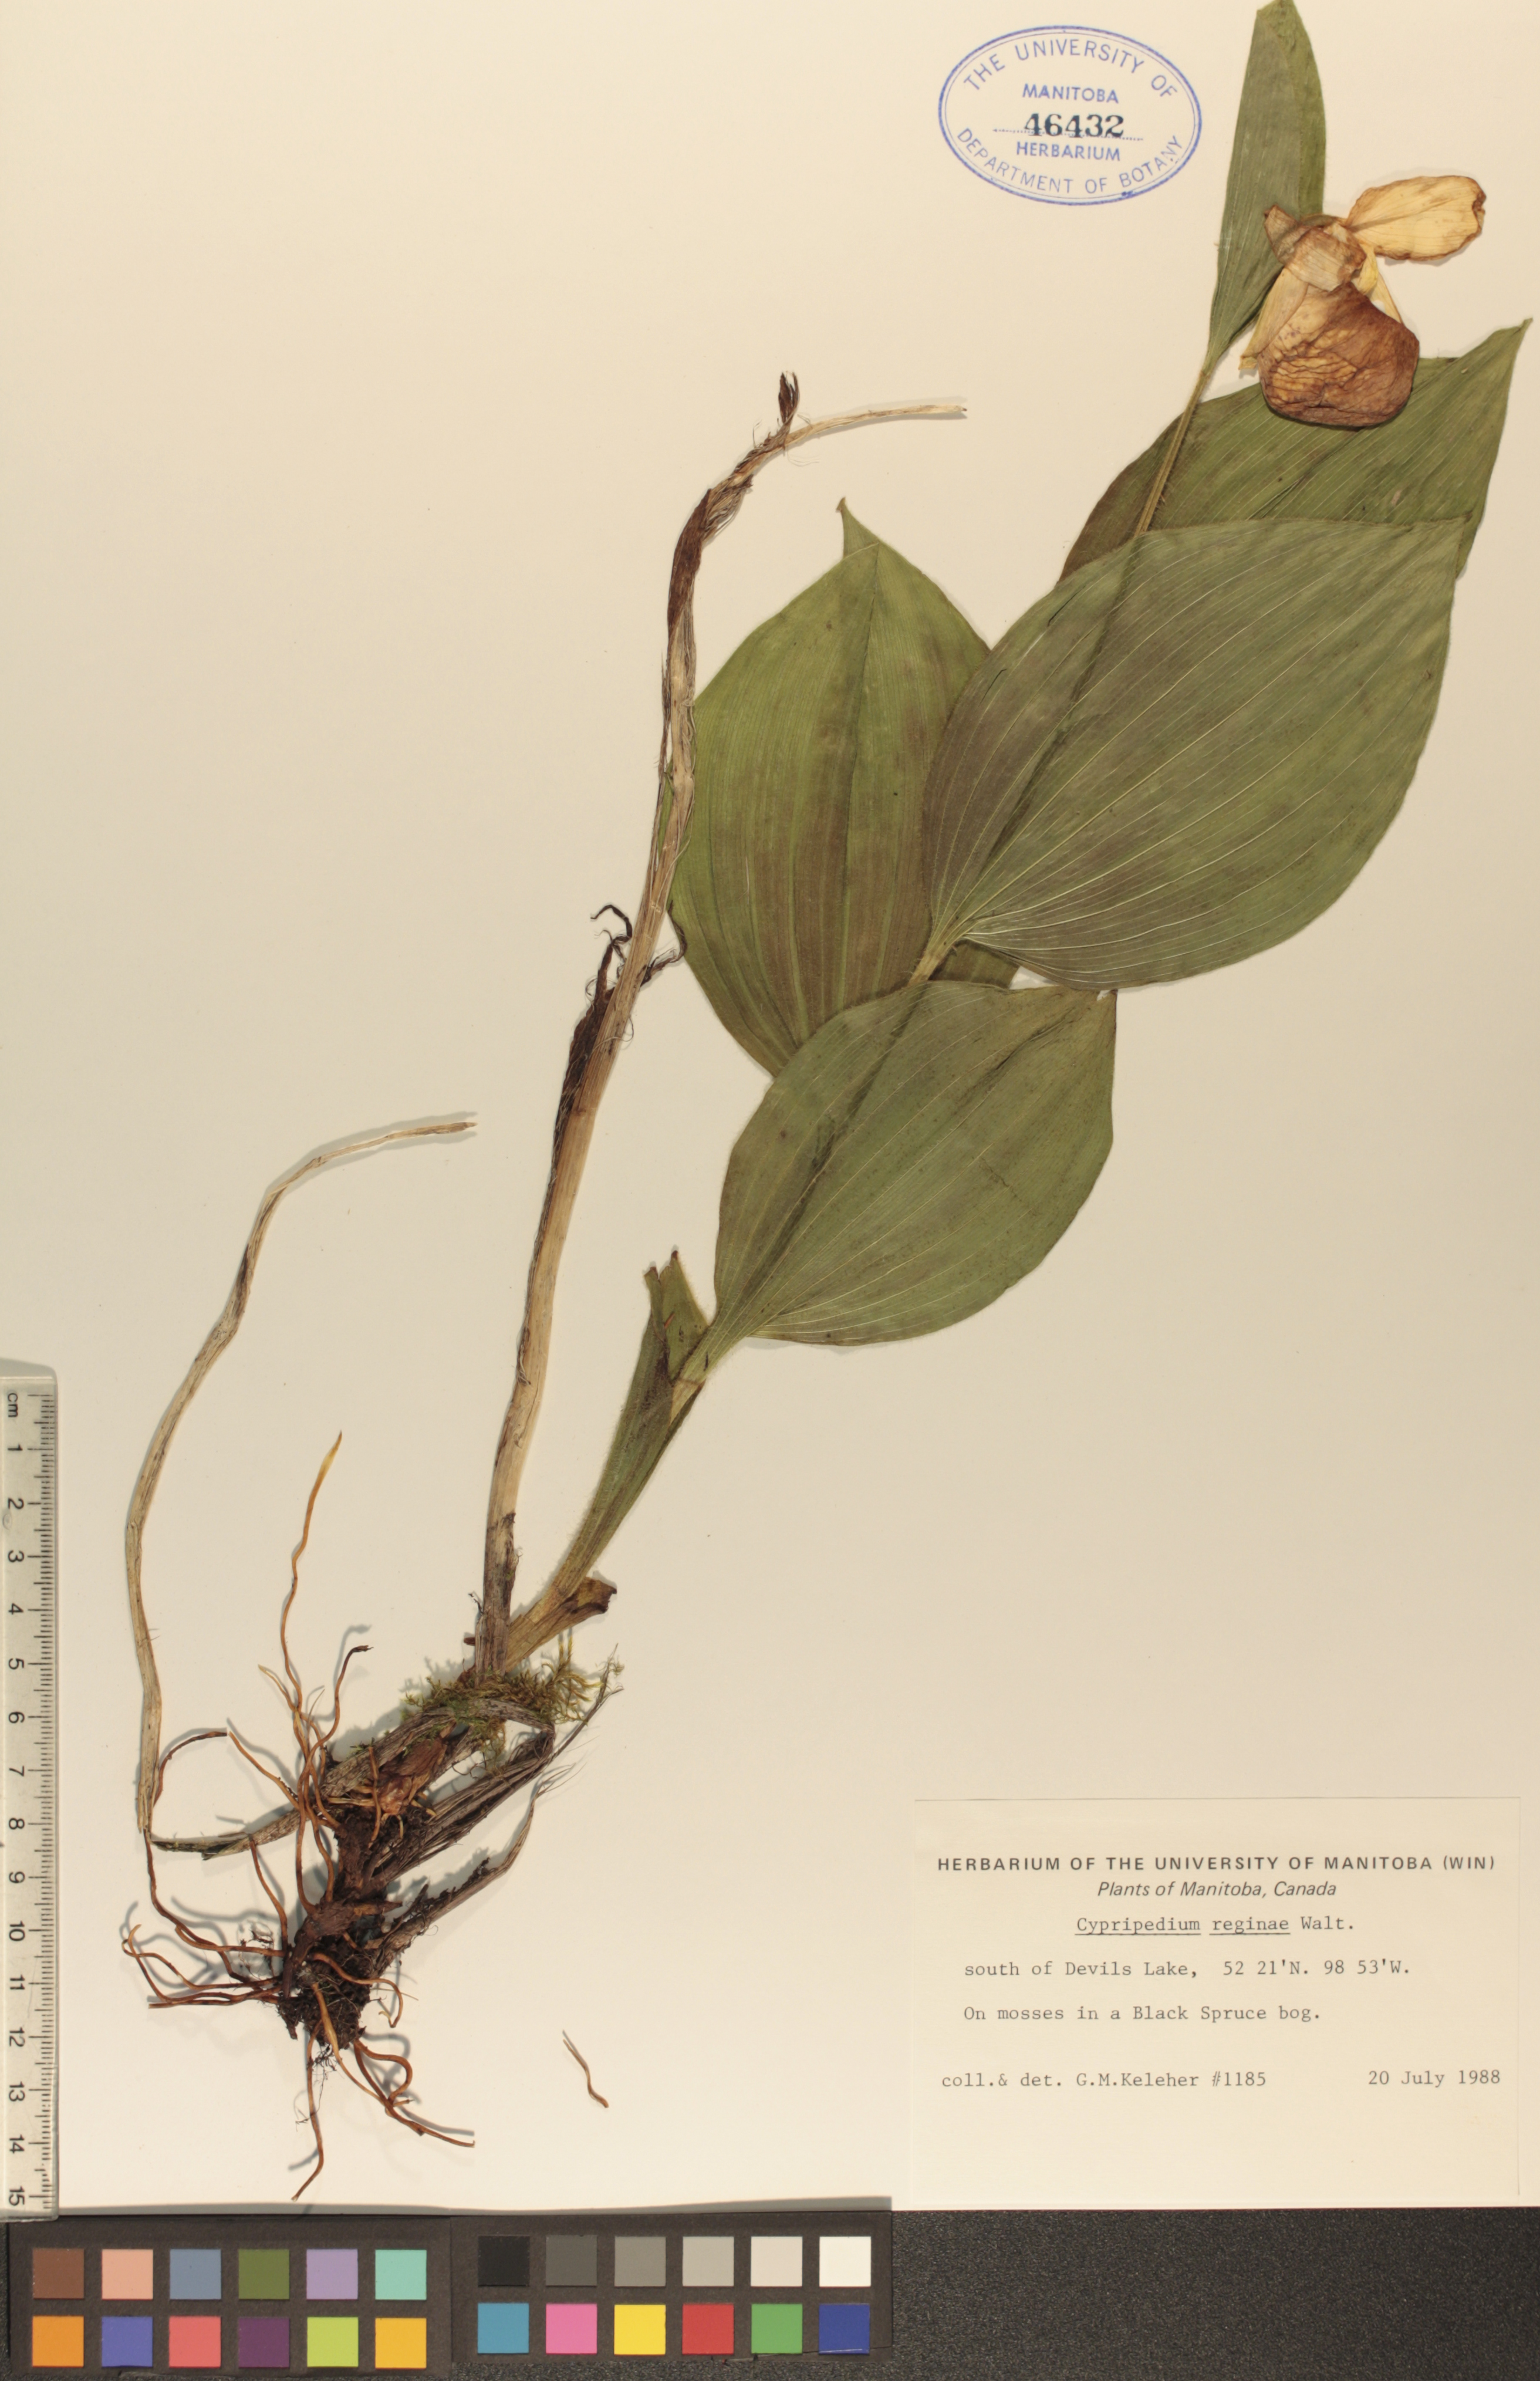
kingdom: Plantae
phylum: Tracheophyta
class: Liliopsida
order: Asparagales
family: Orchidaceae
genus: Cypripedium
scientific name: Cypripedium reginae
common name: Queen lady's-slipper
